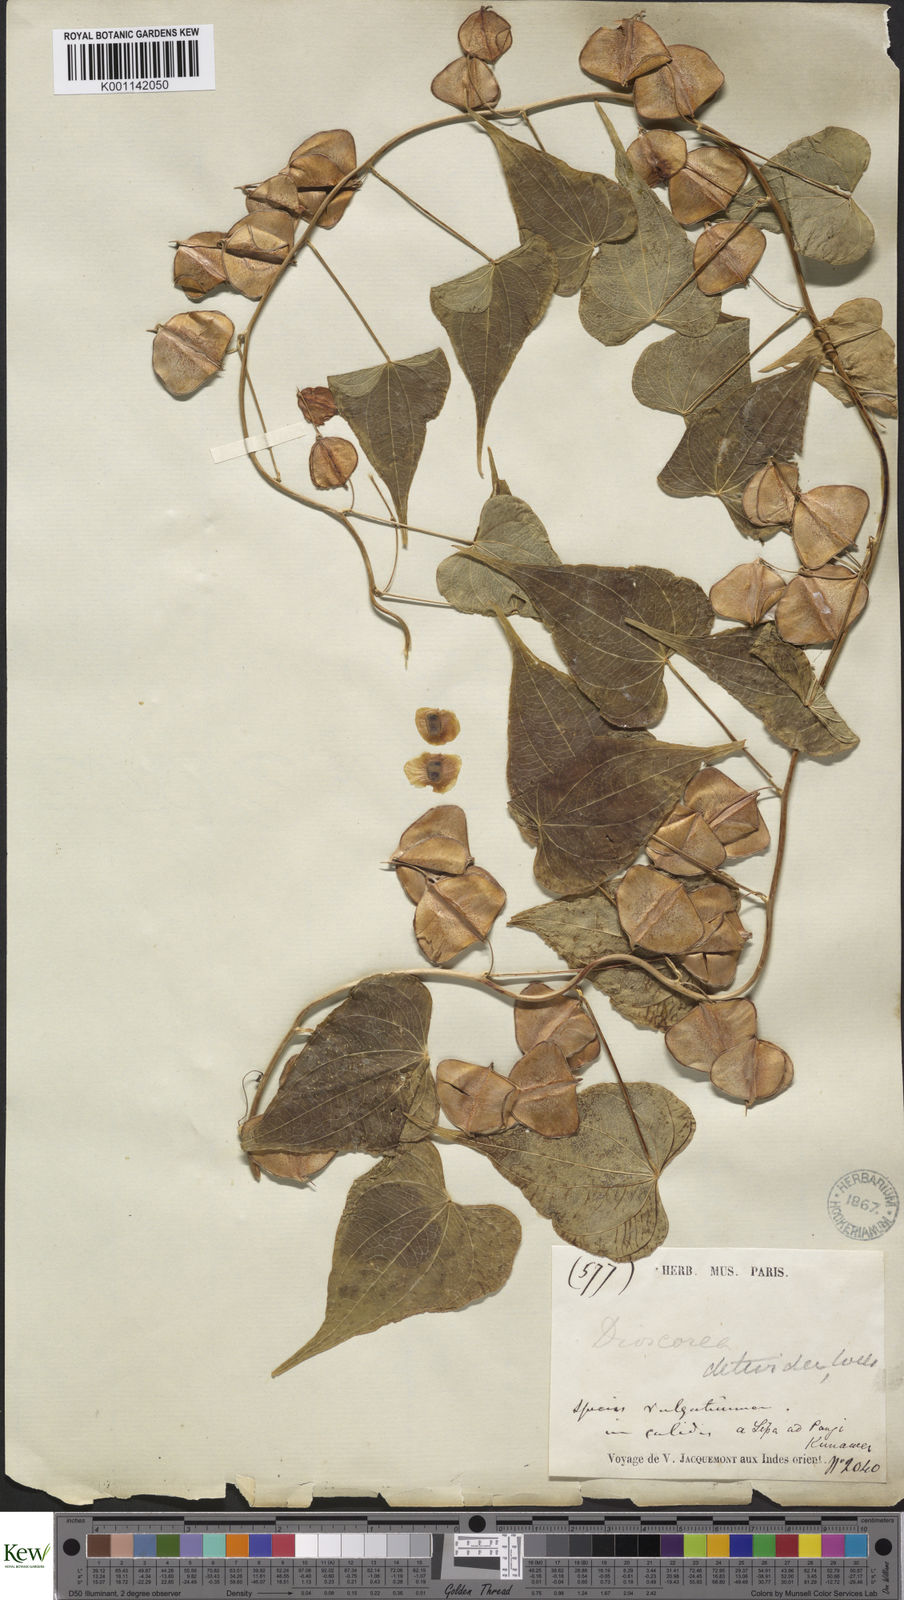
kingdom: Plantae
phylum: Tracheophyta
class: Liliopsida
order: Dioscoreales
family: Dioscoreaceae
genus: Dioscorea
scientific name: Dioscorea deltoidea
